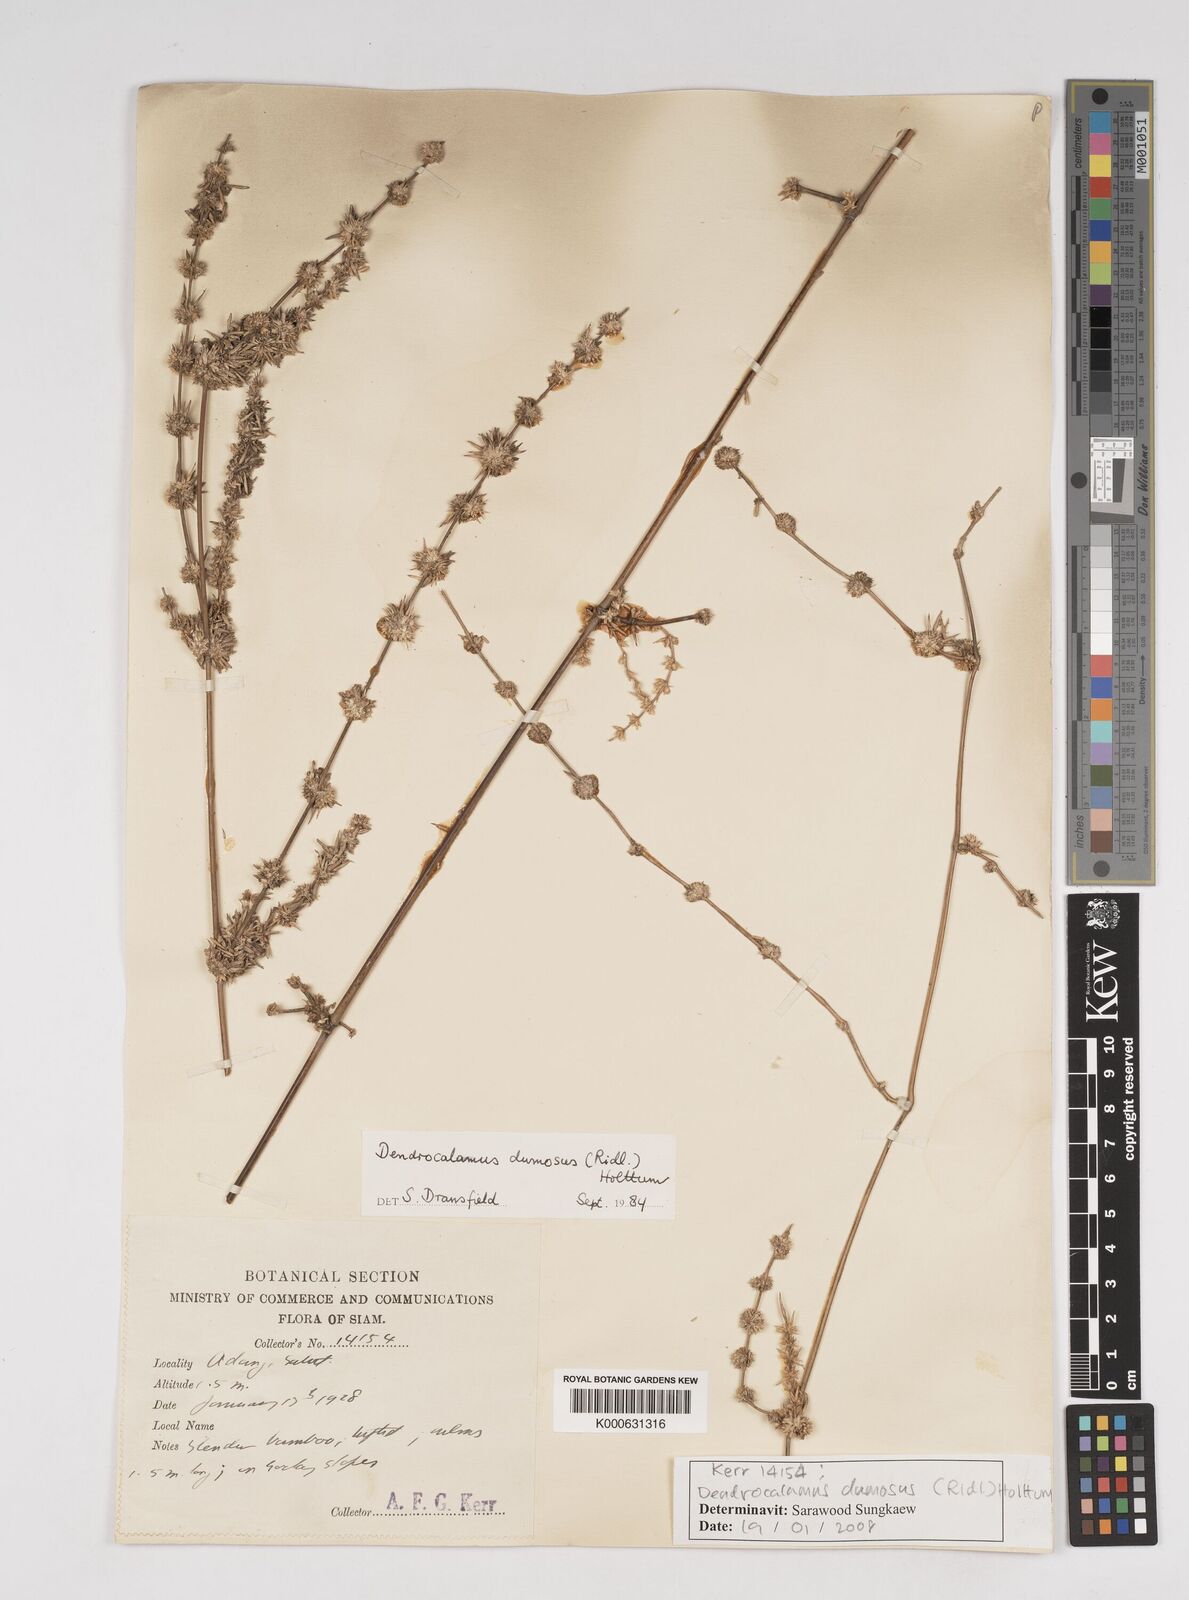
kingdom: Plantae
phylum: Tracheophyta
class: Liliopsida
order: Poales
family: Poaceae
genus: Dendrocalamus
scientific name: Dendrocalamus dumosus
